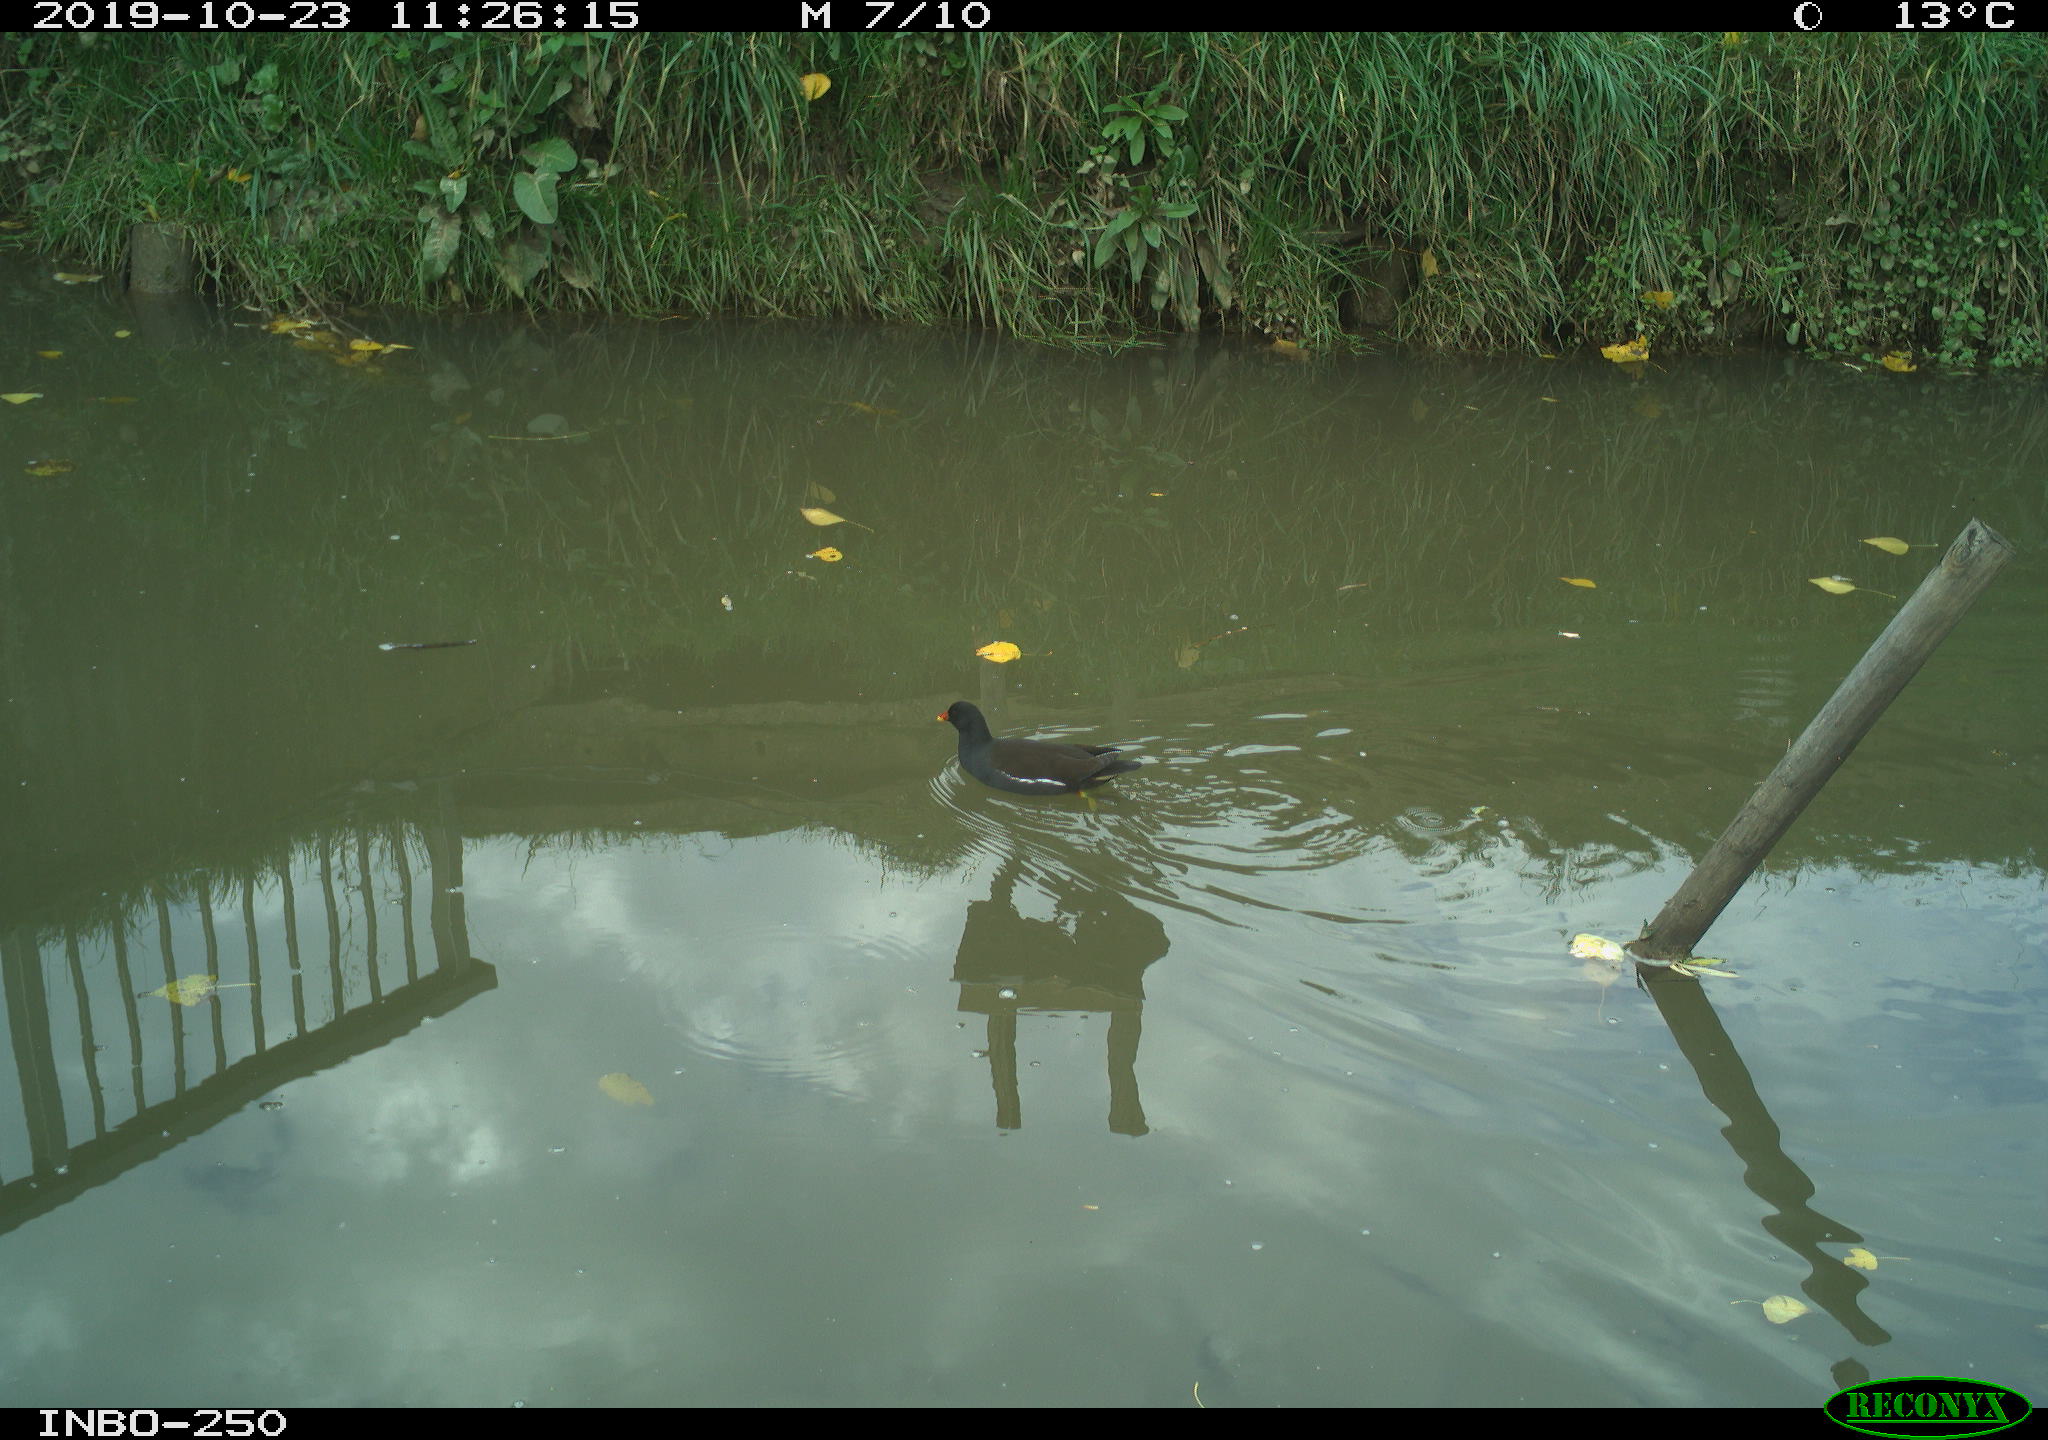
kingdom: Animalia
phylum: Chordata
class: Aves
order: Gruiformes
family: Rallidae
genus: Gallinula
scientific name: Gallinula chloropus
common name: Common moorhen
